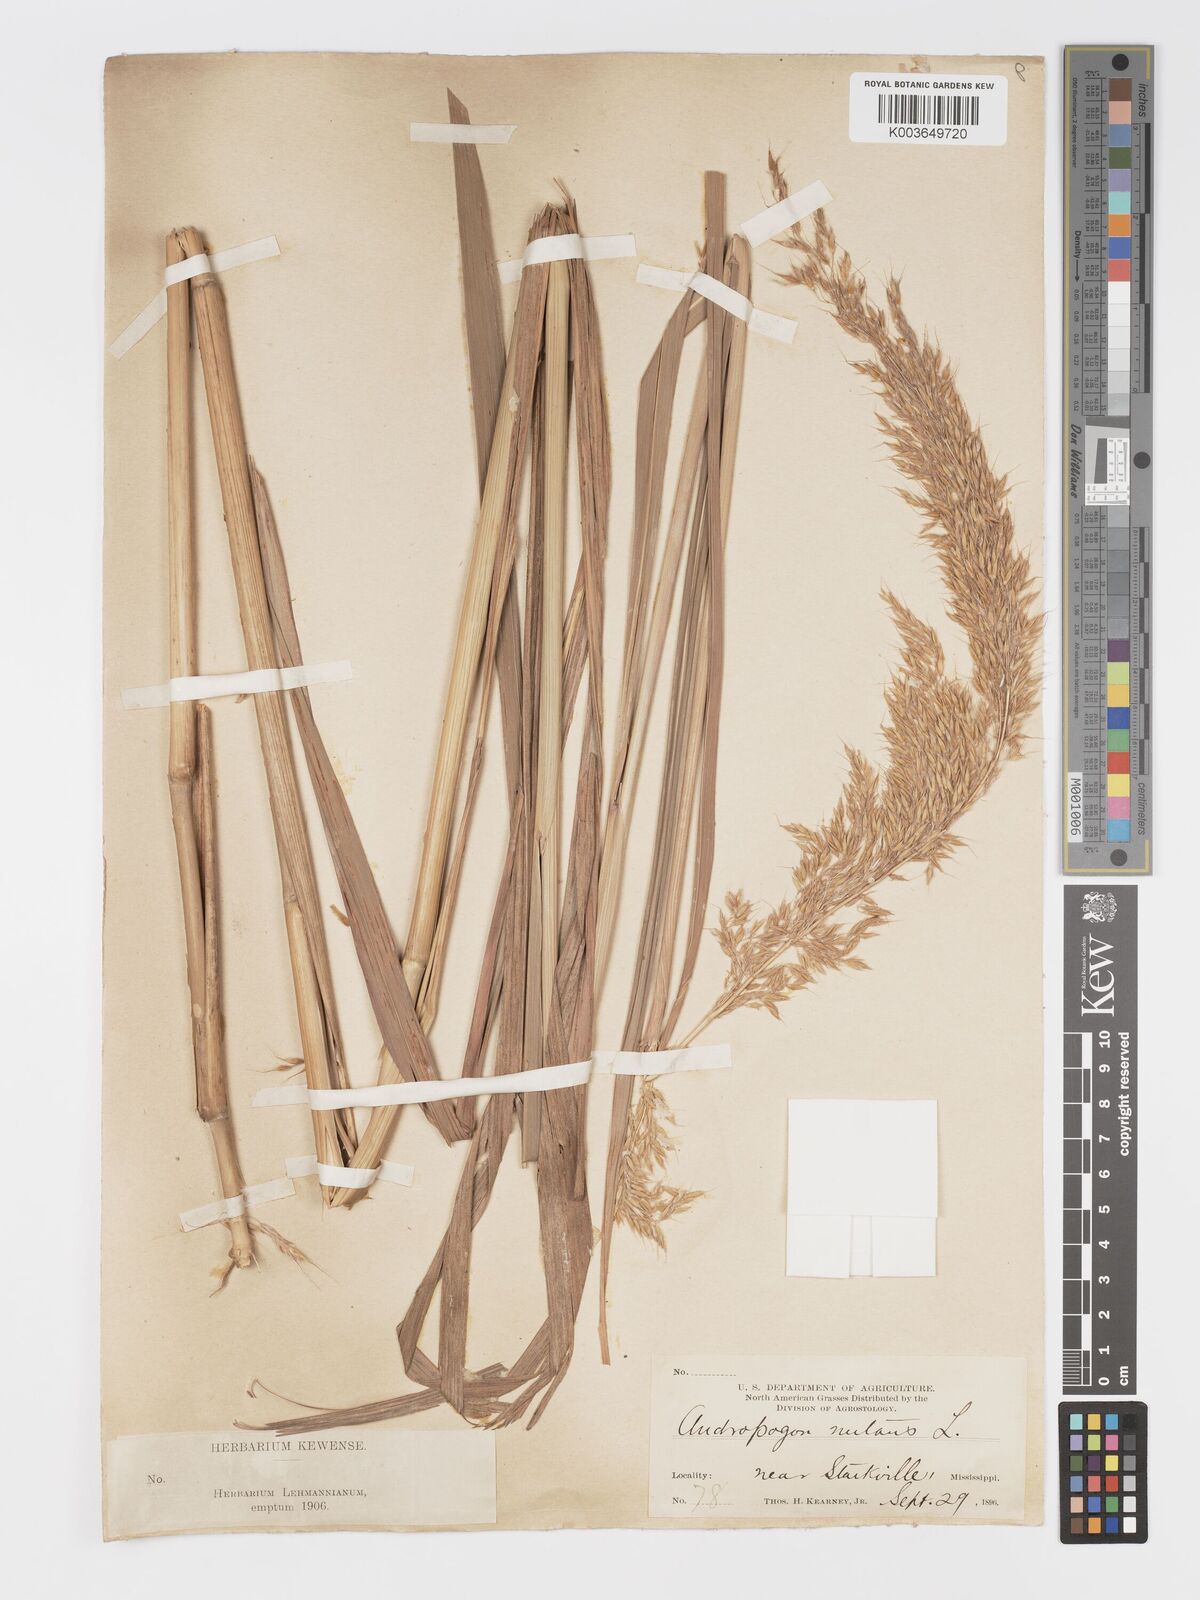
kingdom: Plantae
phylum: Tracheophyta
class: Liliopsida
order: Poales
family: Poaceae
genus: Sorghastrum
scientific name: Sorghastrum nutans
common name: Indian grass
